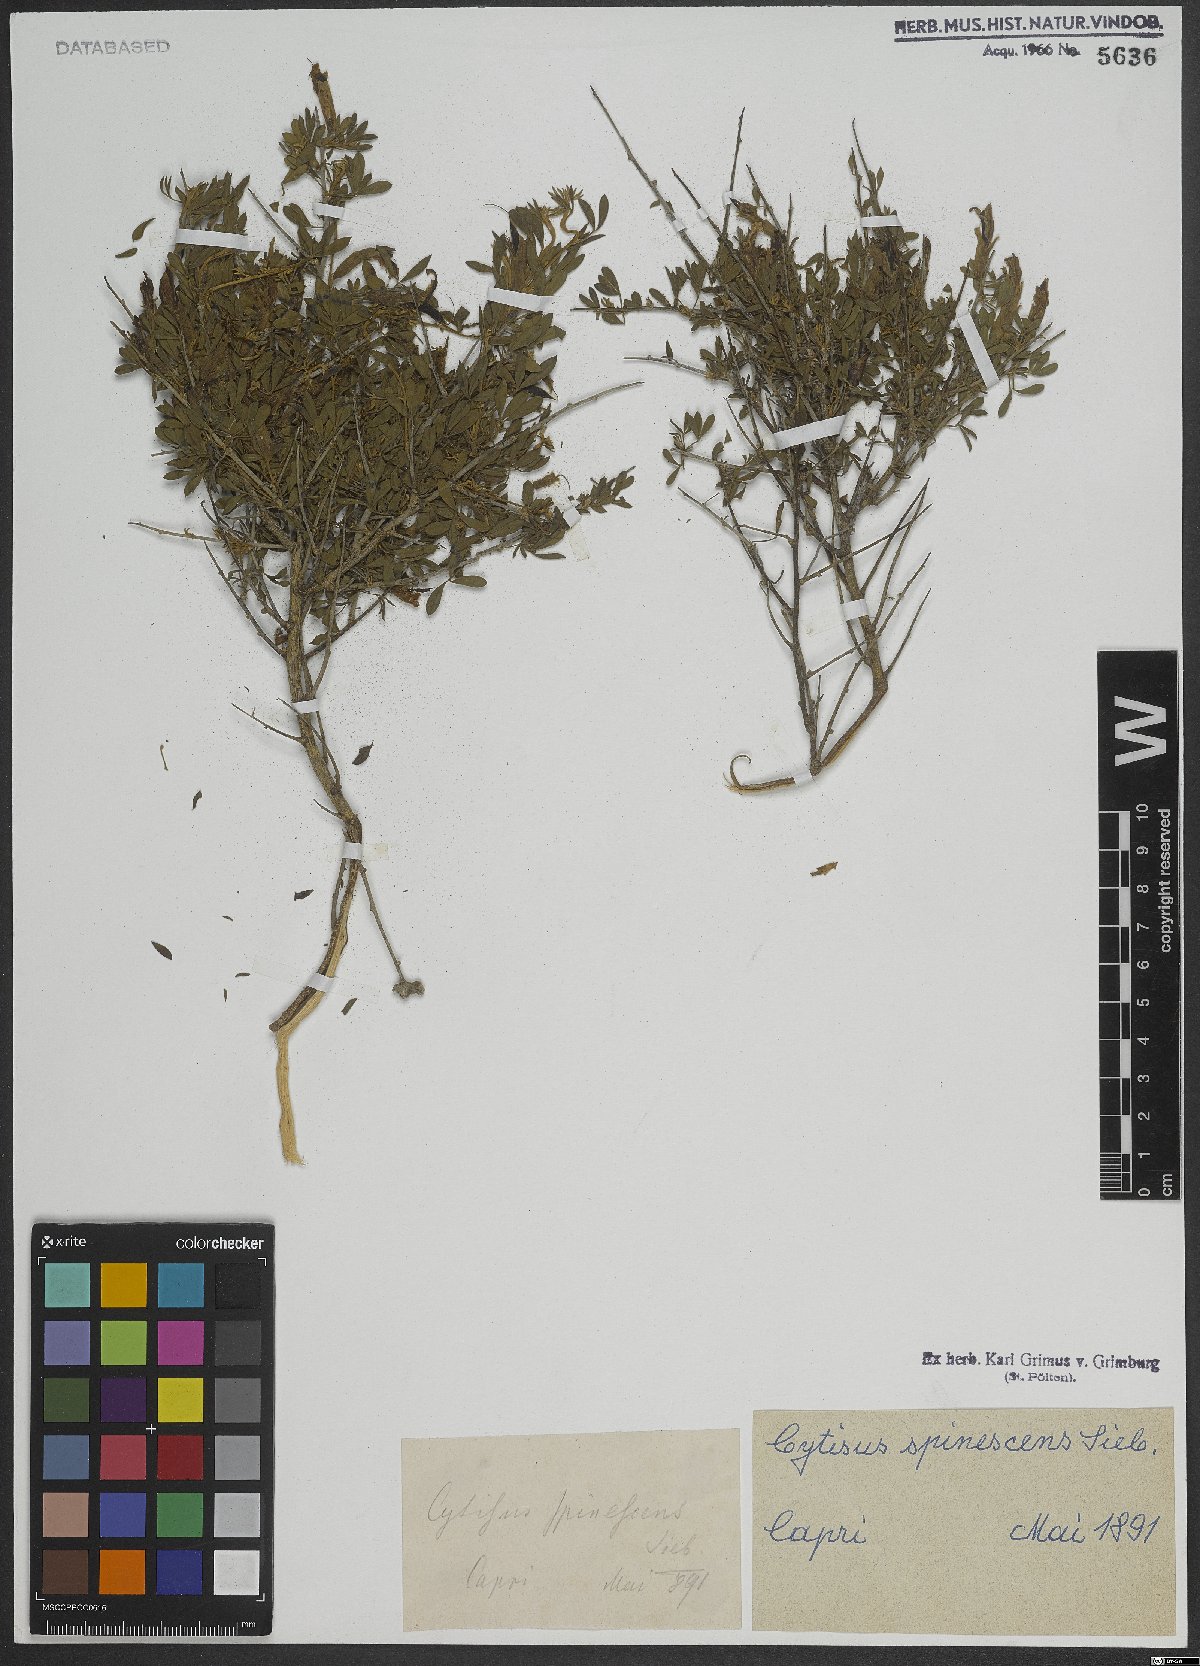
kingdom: Plantae
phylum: Tracheophyta
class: Magnoliopsida
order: Fabales
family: Fabaceae
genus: Chamaecytisus
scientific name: Chamaecytisus spinescens
